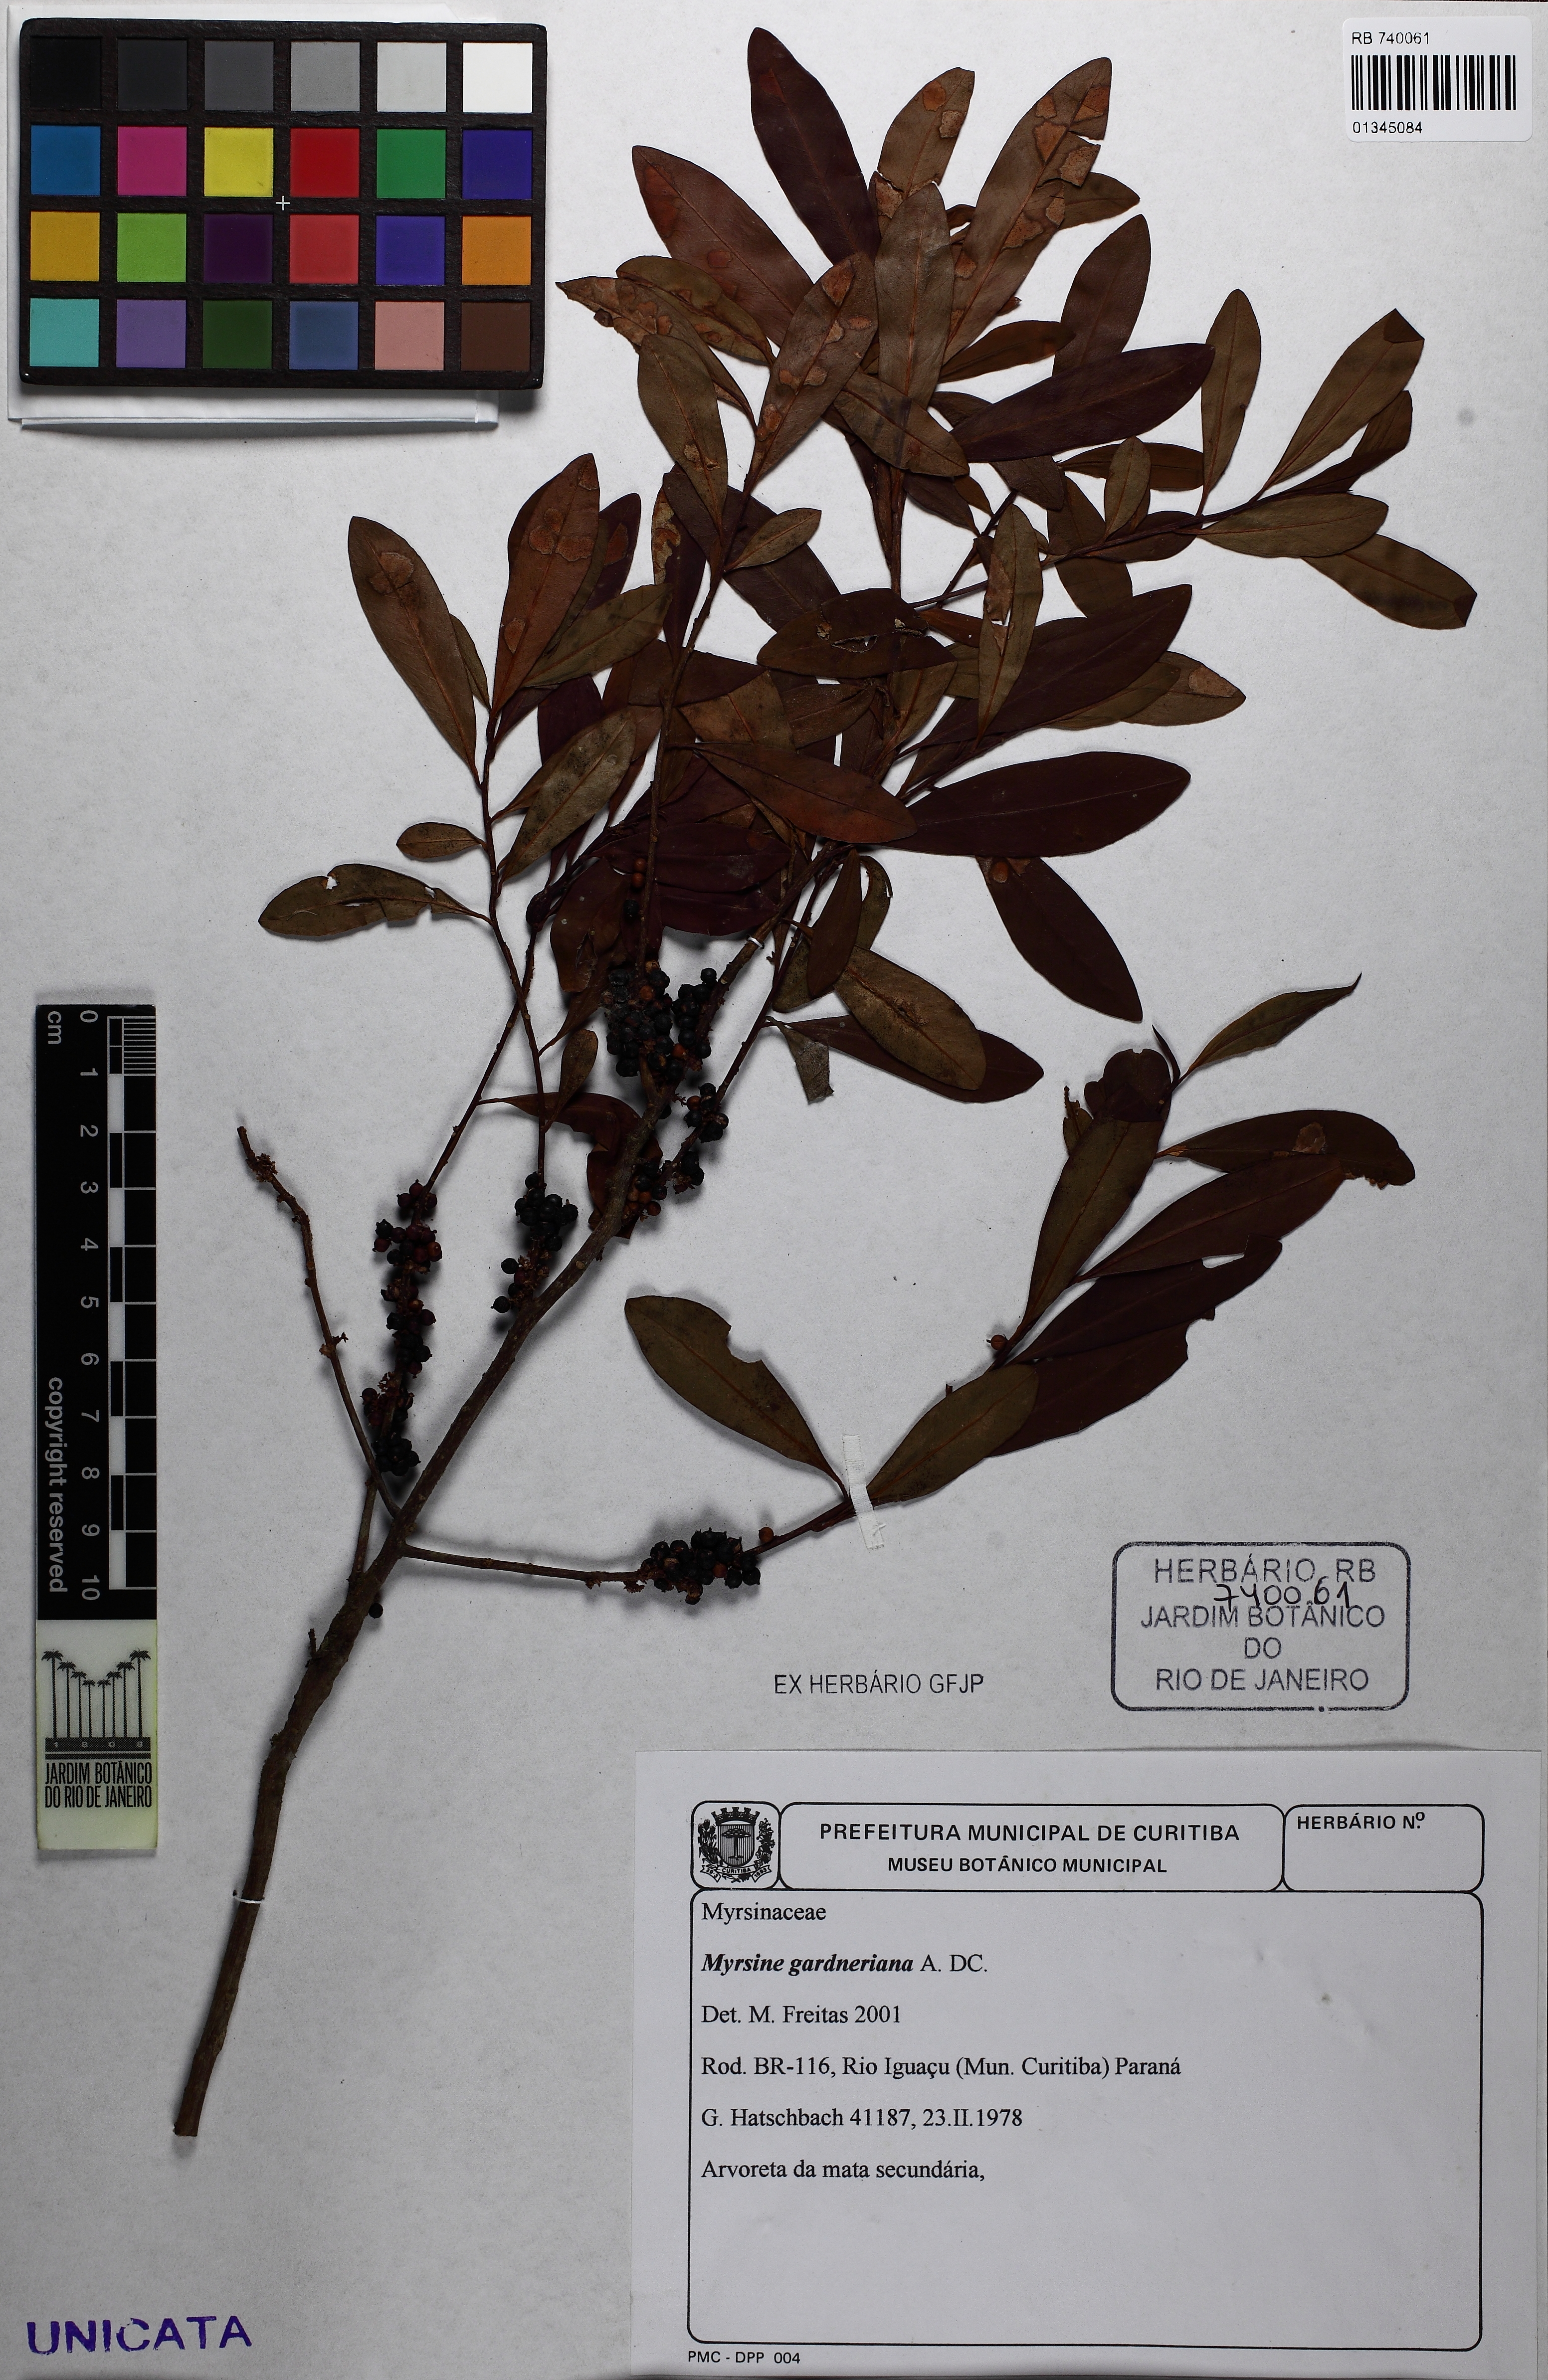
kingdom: Plantae
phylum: Tracheophyta
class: Magnoliopsida
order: Ericales
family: Primulaceae
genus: Myrsine
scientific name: Myrsine gardneriana
